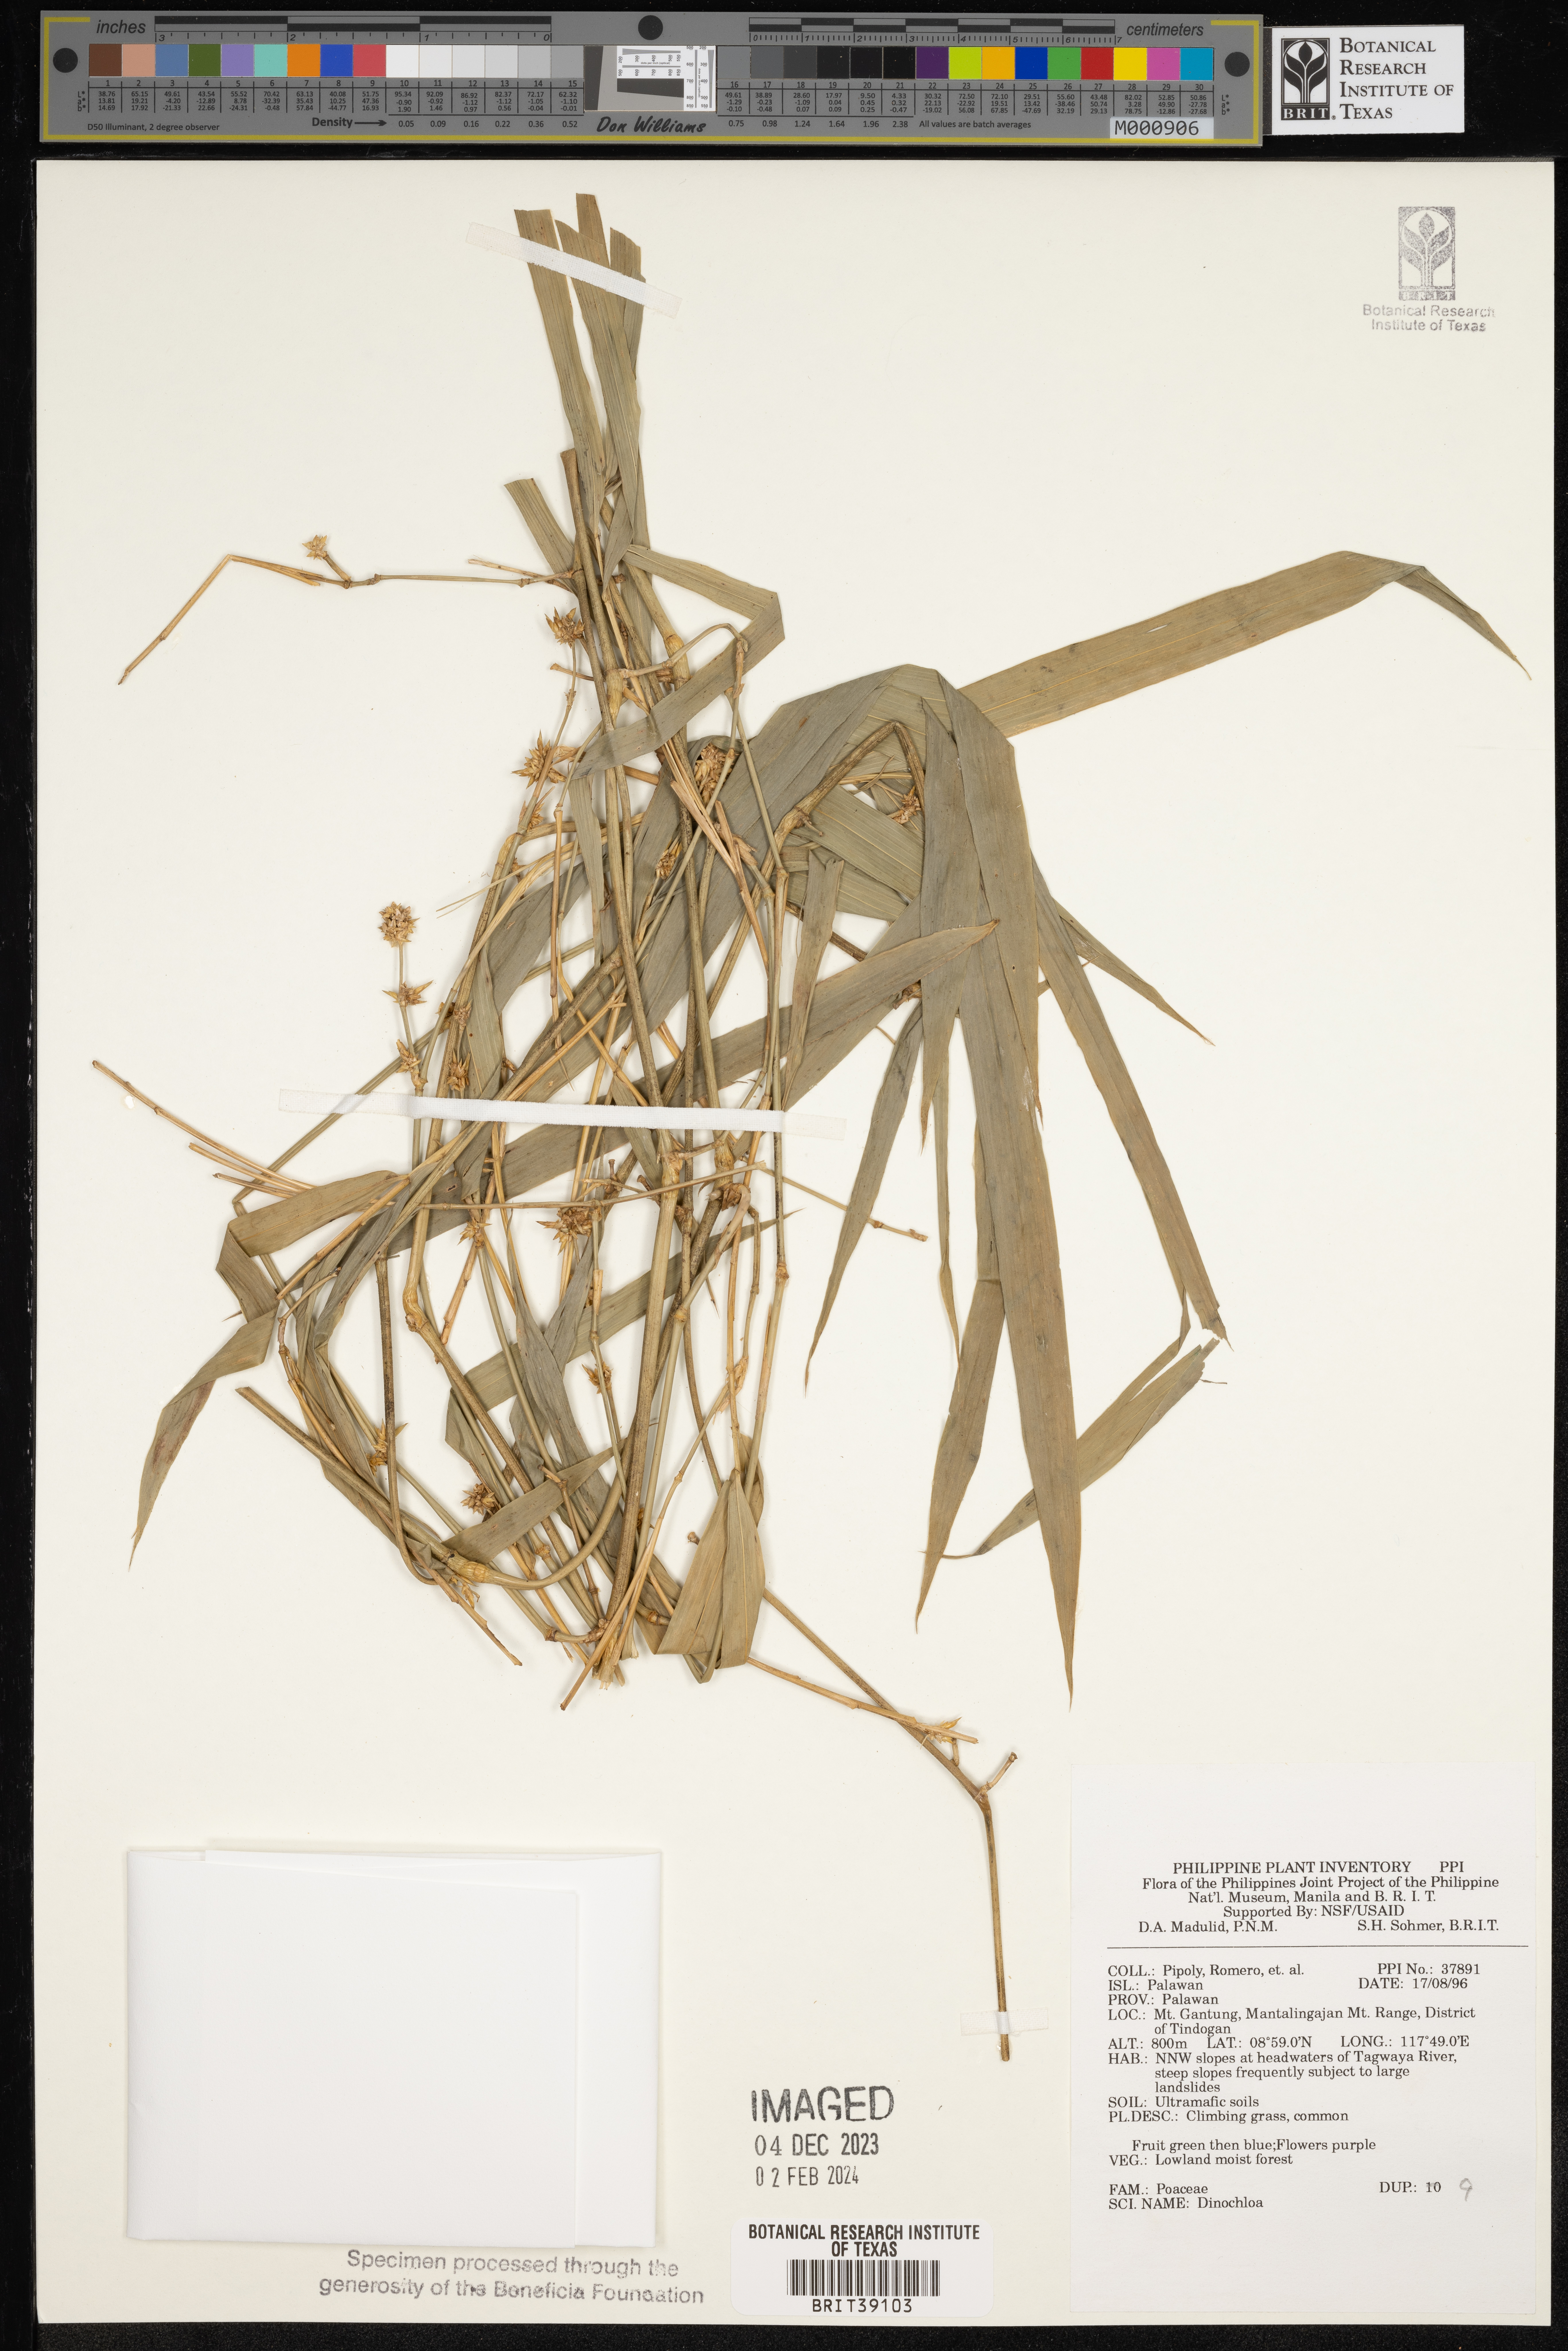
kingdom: Plantae
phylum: Tracheophyta
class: Liliopsida
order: Poales
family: Poaceae
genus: Dinochloa
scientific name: Dinochloa
